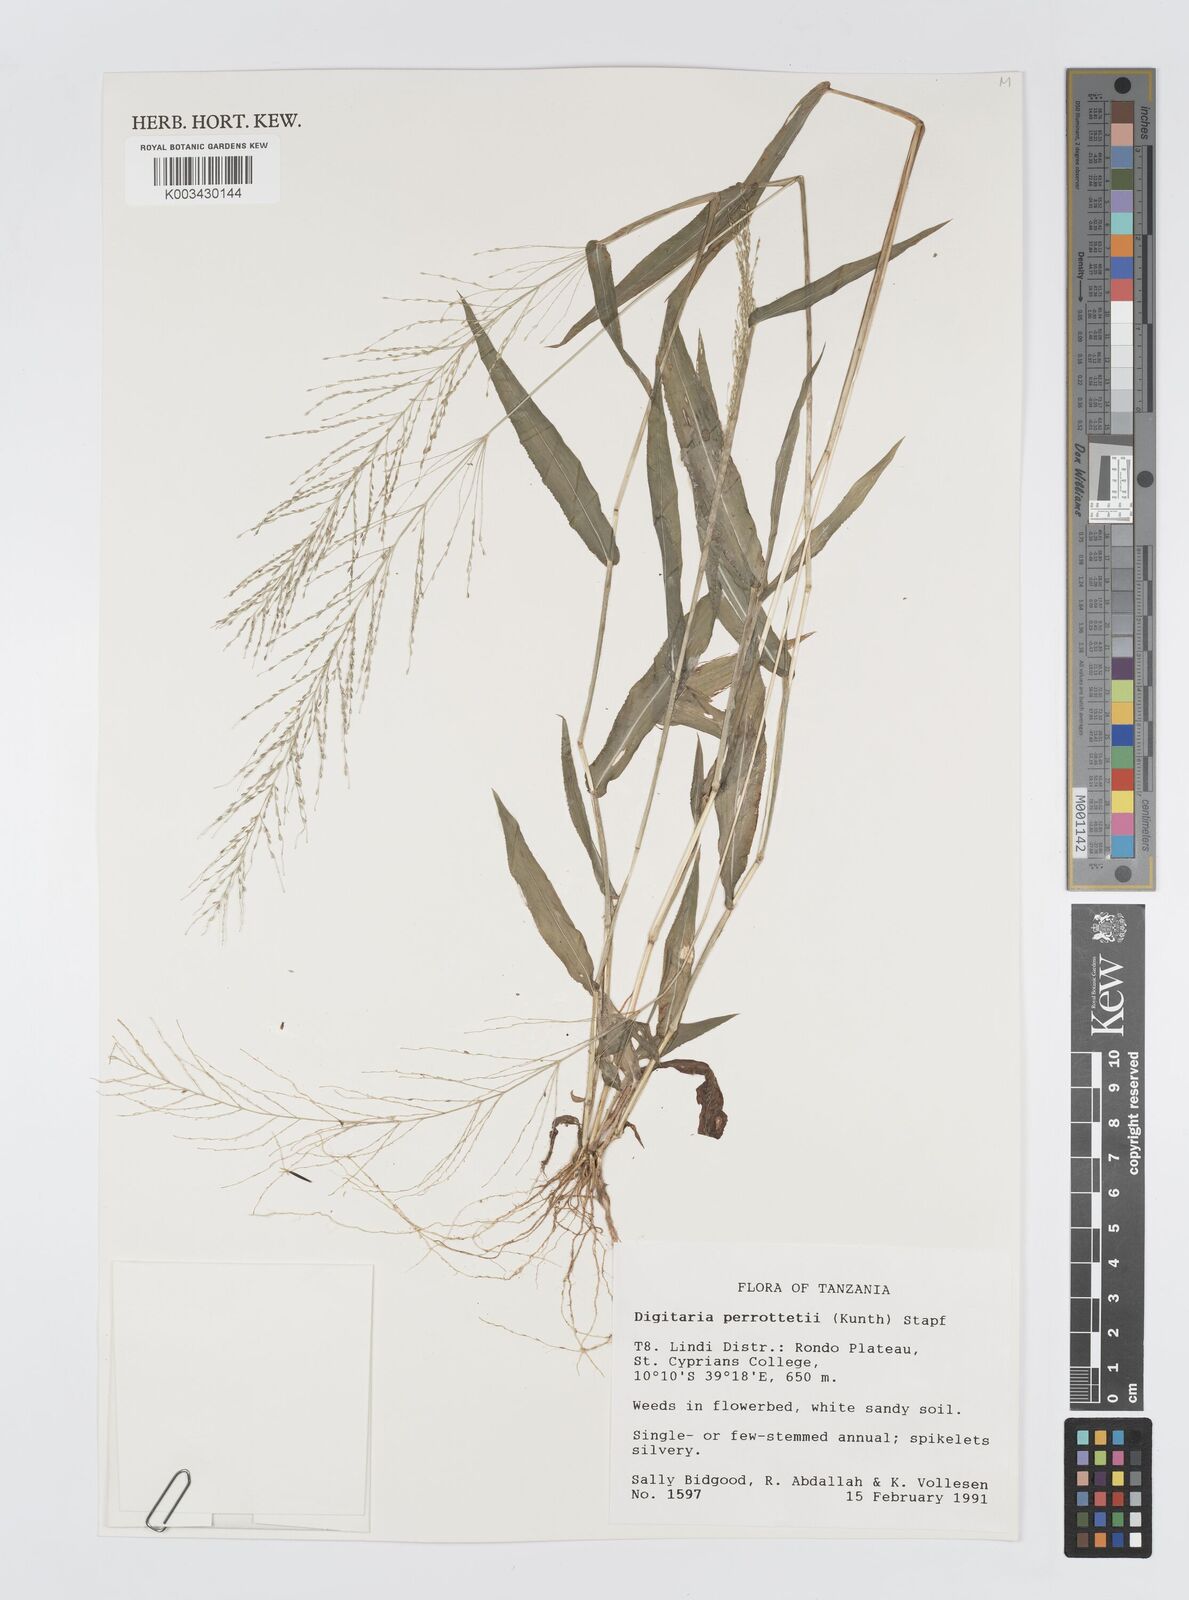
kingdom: Plantae
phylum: Tracheophyta
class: Liliopsida
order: Poales
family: Poaceae
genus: Digitaria
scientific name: Digitaria perrottetii
